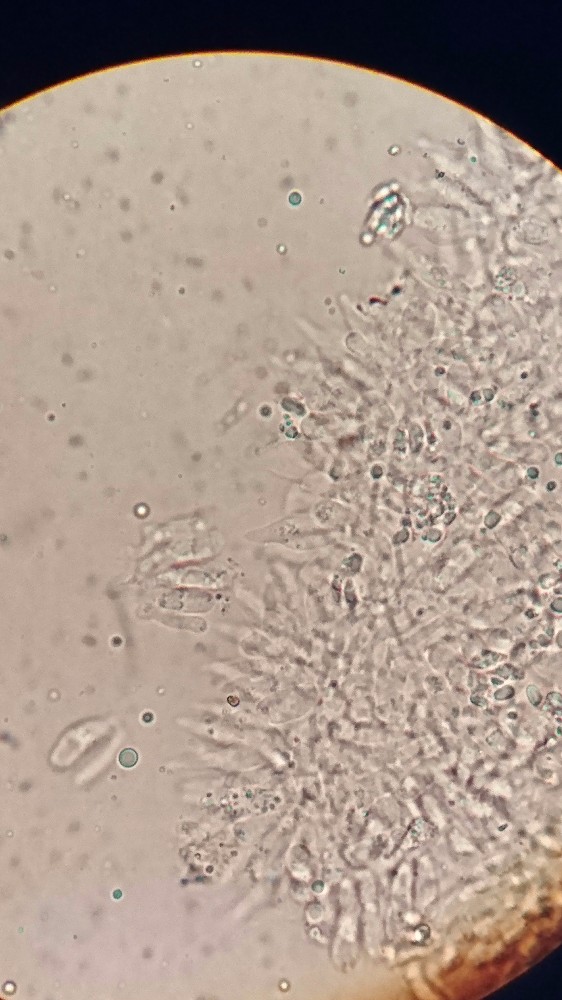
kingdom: Fungi
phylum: Basidiomycota
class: Agaricomycetes
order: Agaricales
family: Mycenaceae
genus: Hemimycena
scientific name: Hemimycena tortuosa
